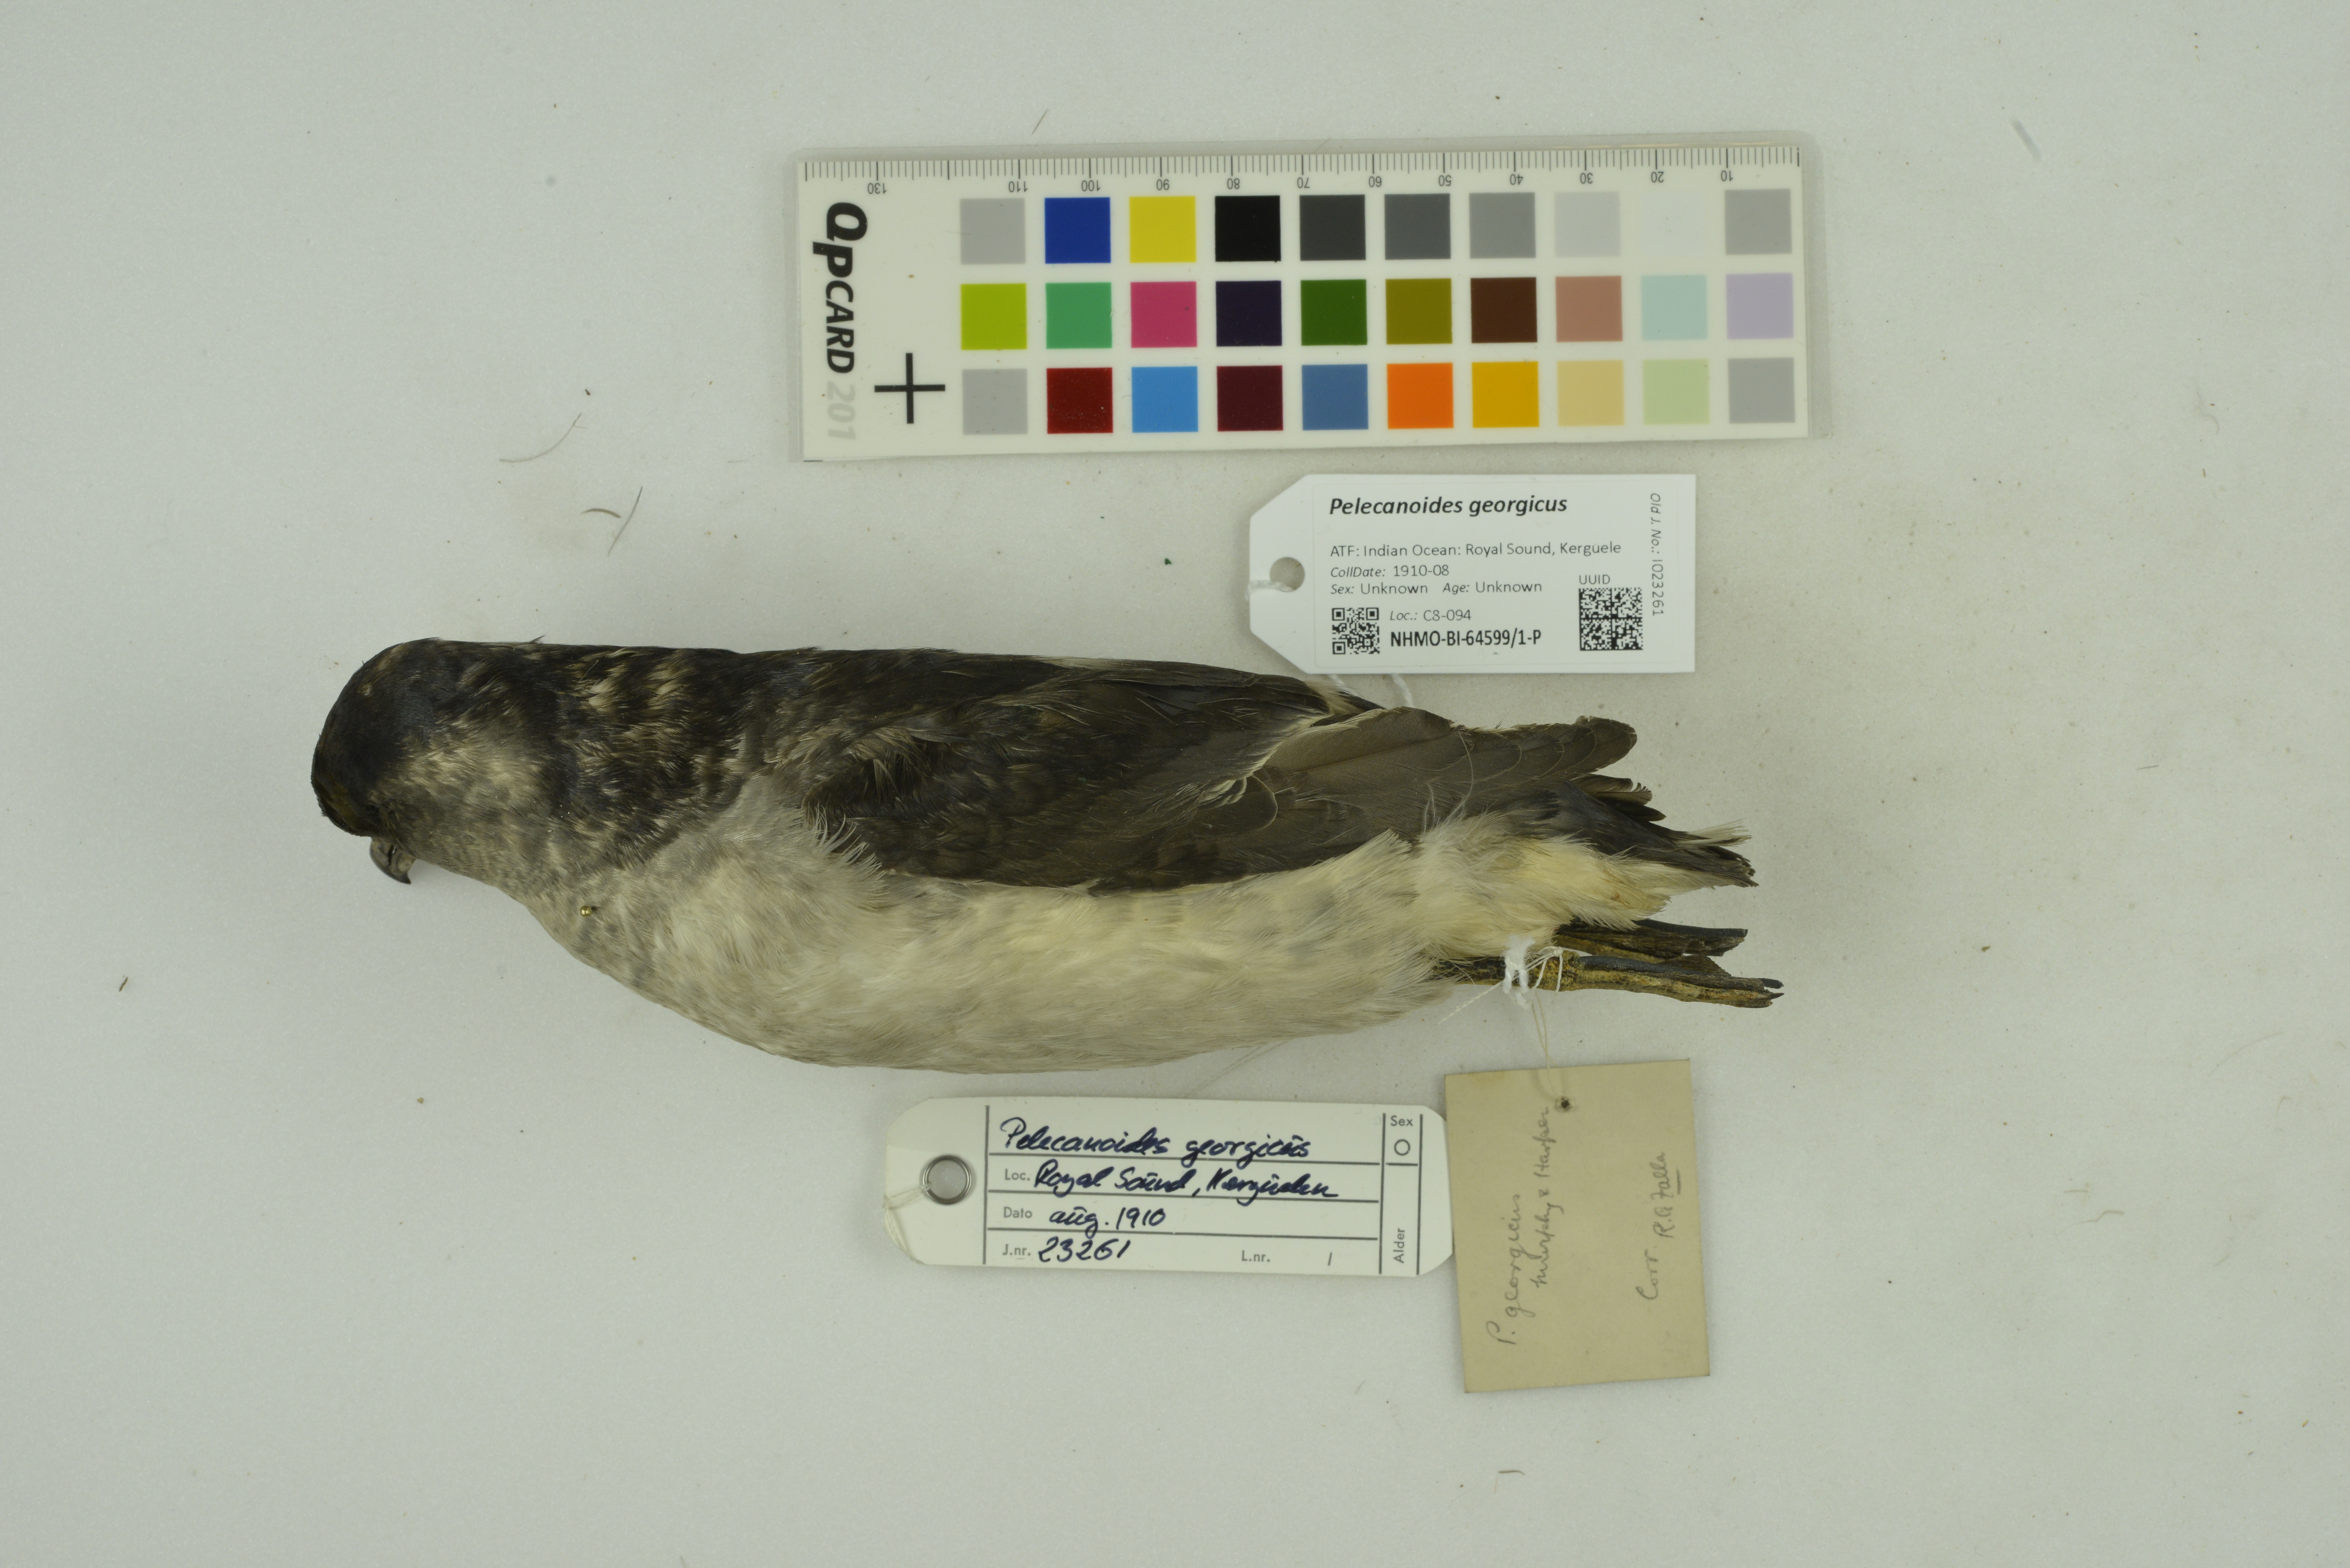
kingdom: Animalia
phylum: Chordata
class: Aves
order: Procellariiformes
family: Pelecanoididae
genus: Pelecanoides
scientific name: Pelecanoides georgicus
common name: South georgia diving-petrel
